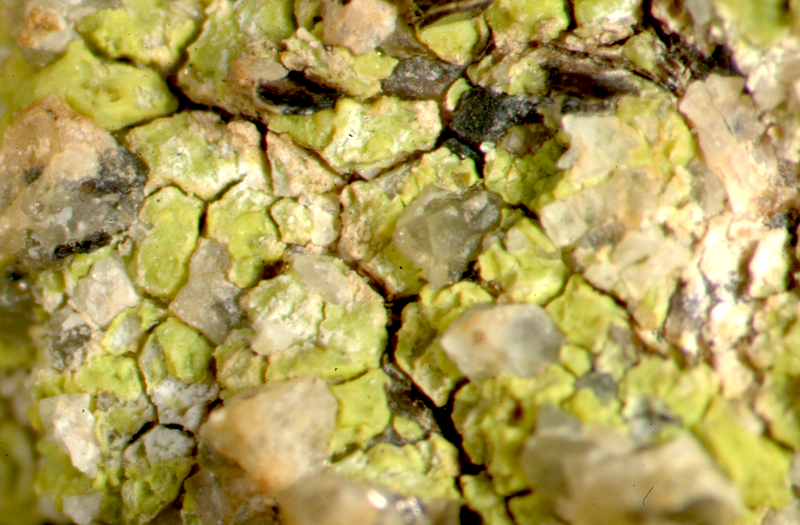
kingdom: Fungi
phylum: Ascomycota
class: Lecanoromycetes
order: Lecanorales
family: Parmeliaceae
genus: Xanthoparmelia
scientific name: Xanthoparmelia
